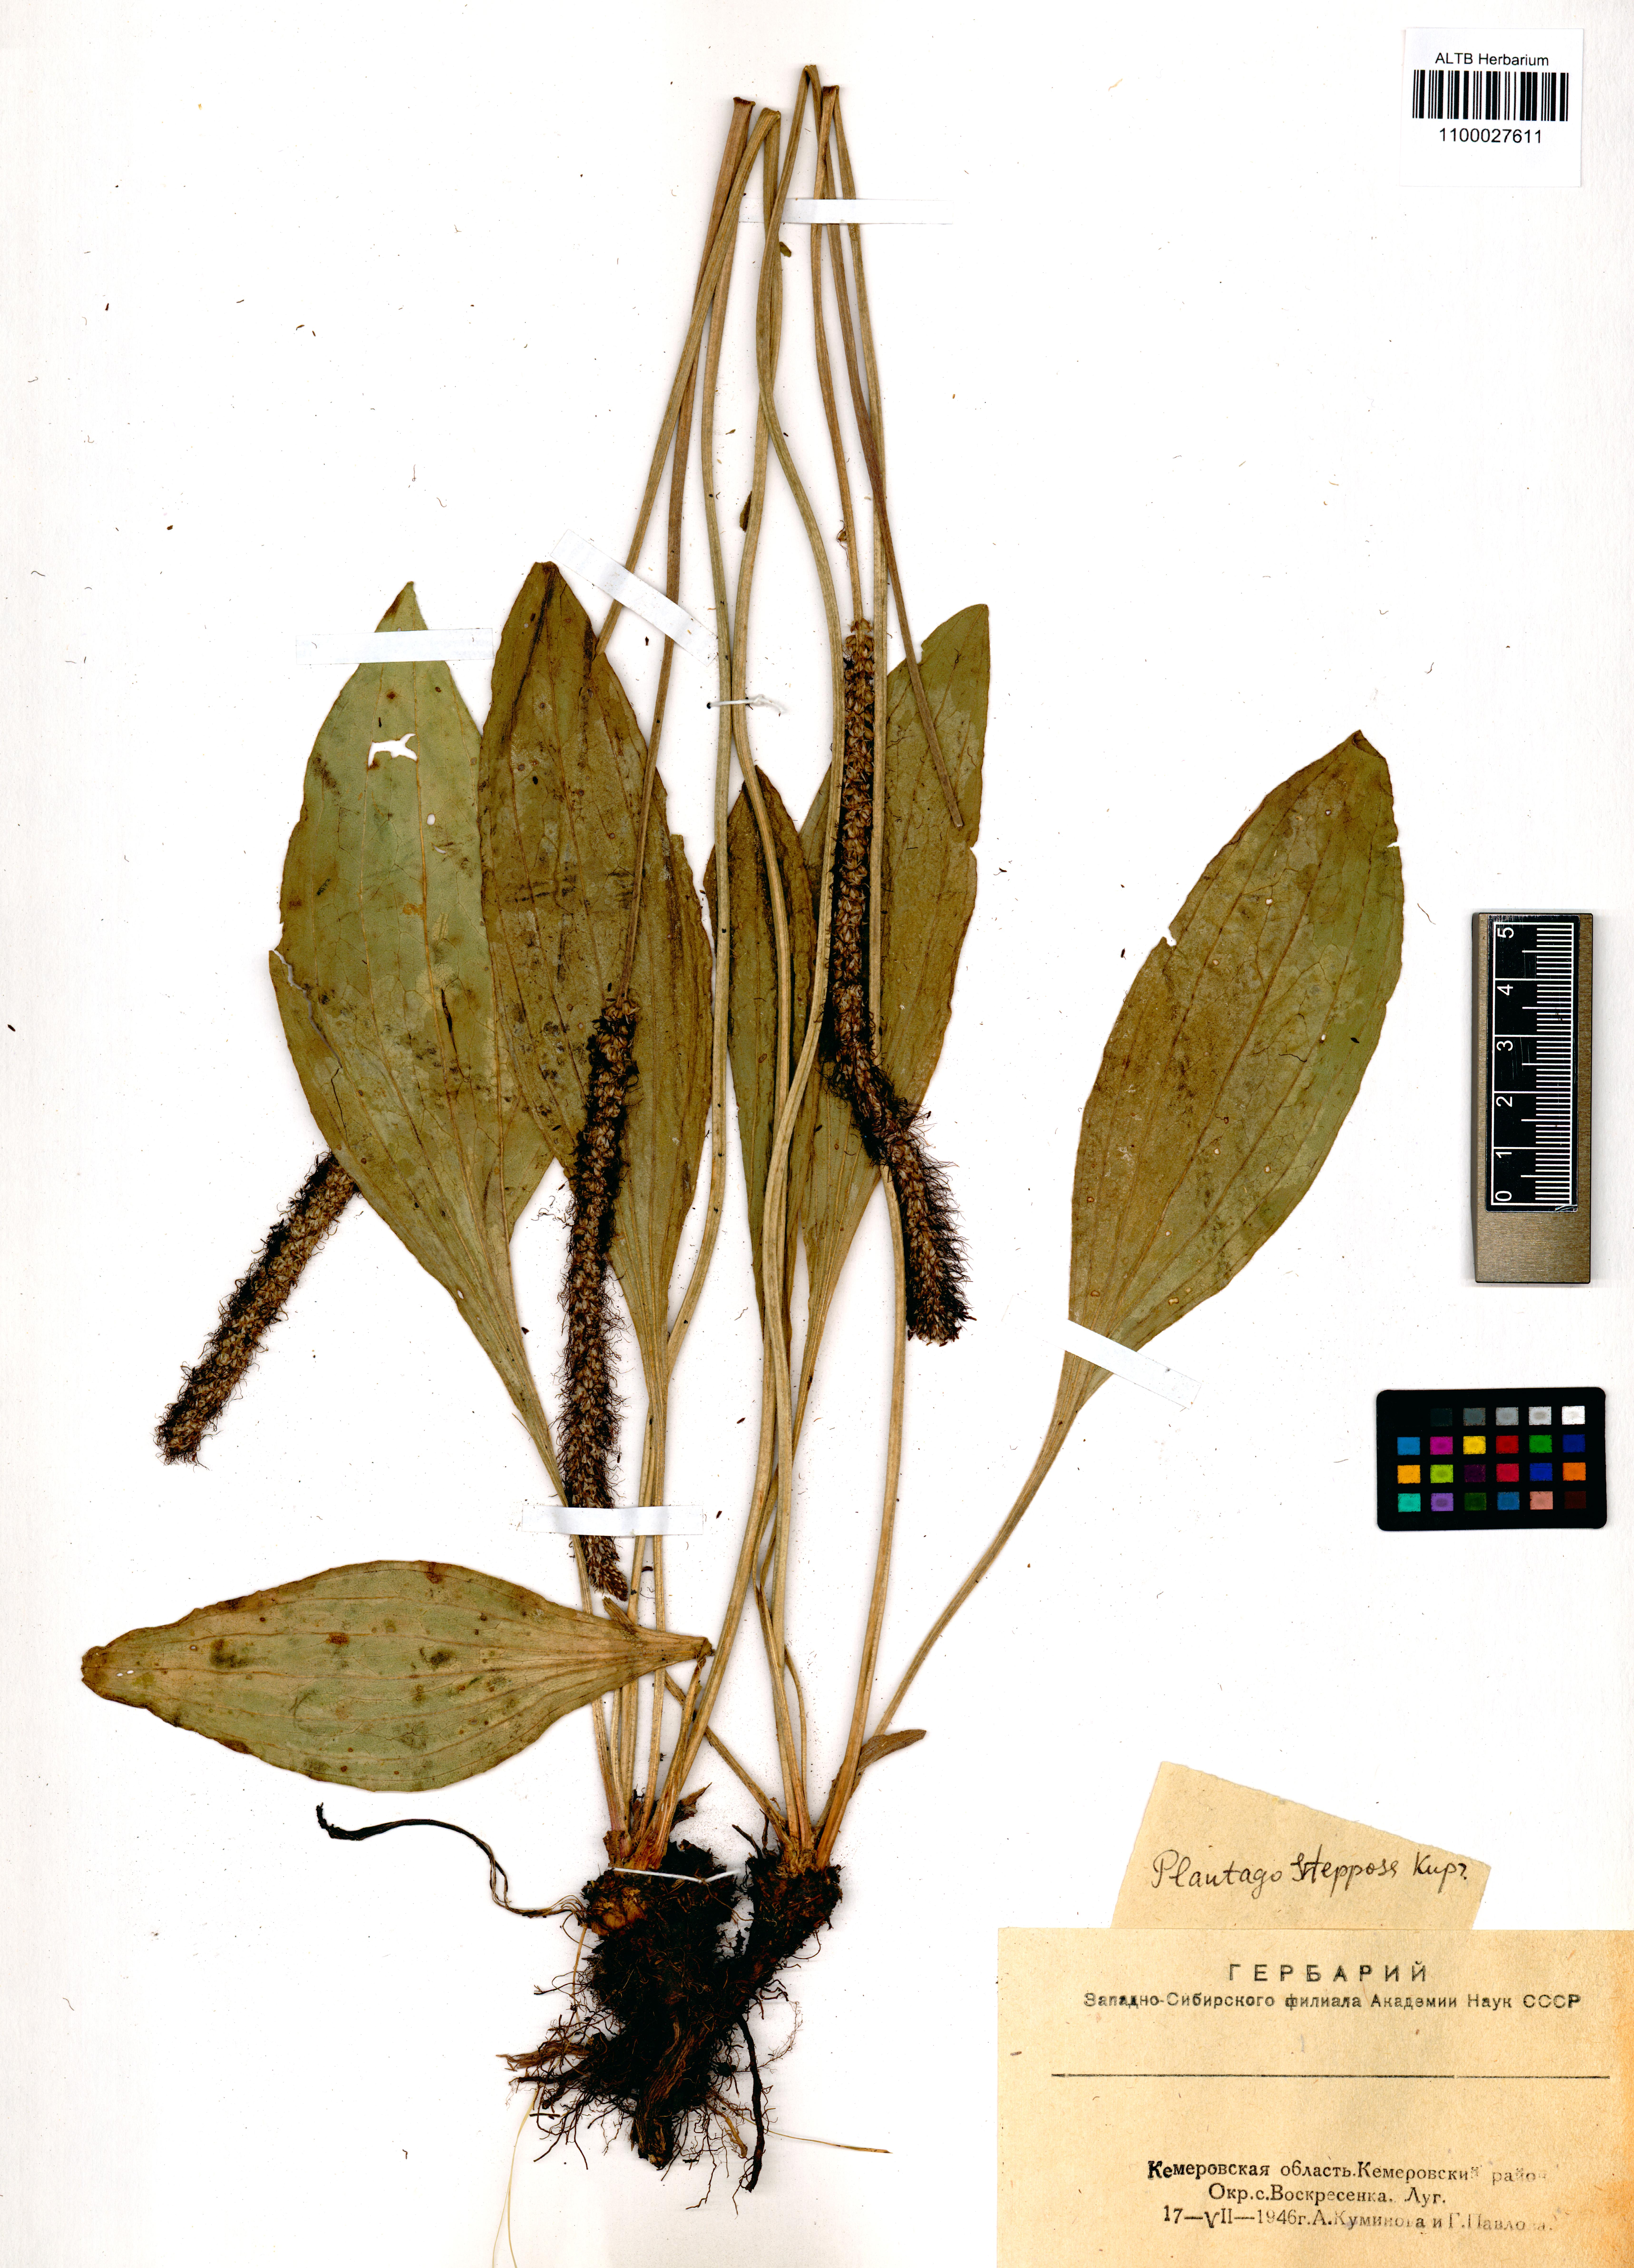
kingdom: Plantae
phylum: Tracheophyta
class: Magnoliopsida
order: Lamiales
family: Plantaginaceae
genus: Plantago
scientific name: Plantago urvillei
